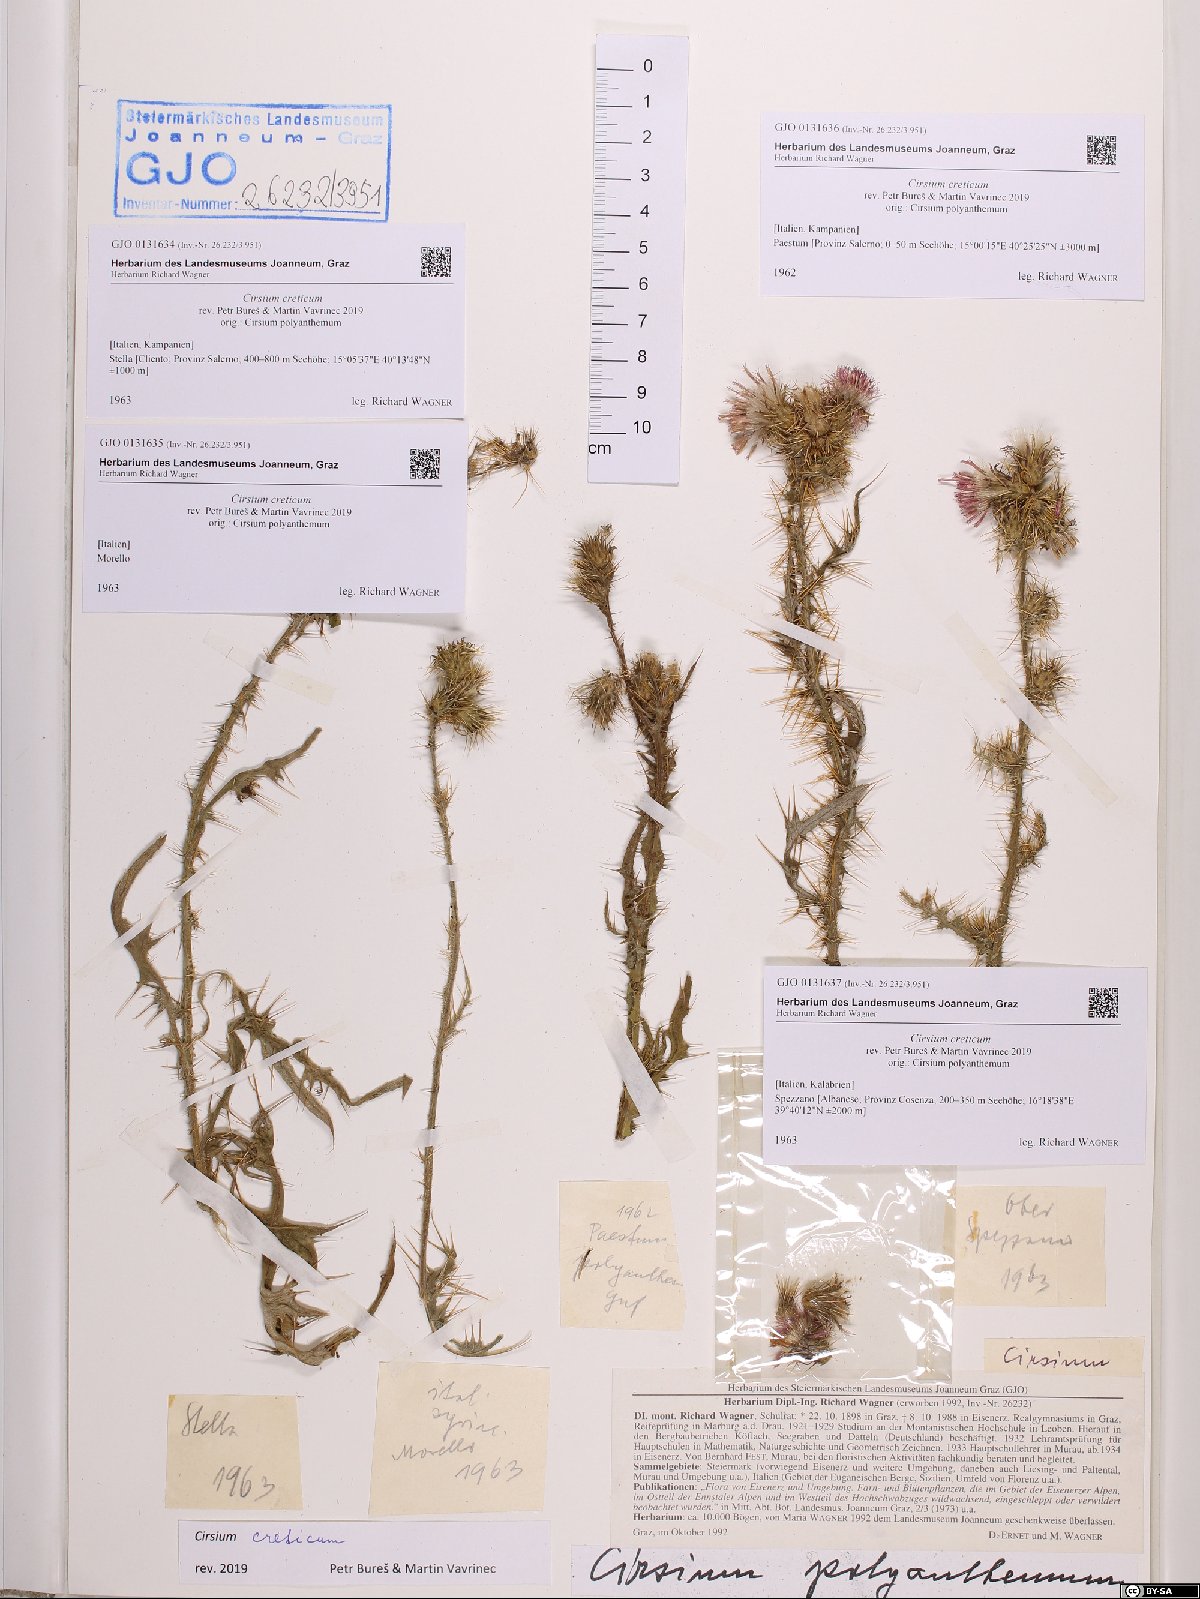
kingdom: Plantae
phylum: Tracheophyta
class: Magnoliopsida
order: Asterales
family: Asteraceae
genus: Cirsium
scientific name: Cirsium creticum
